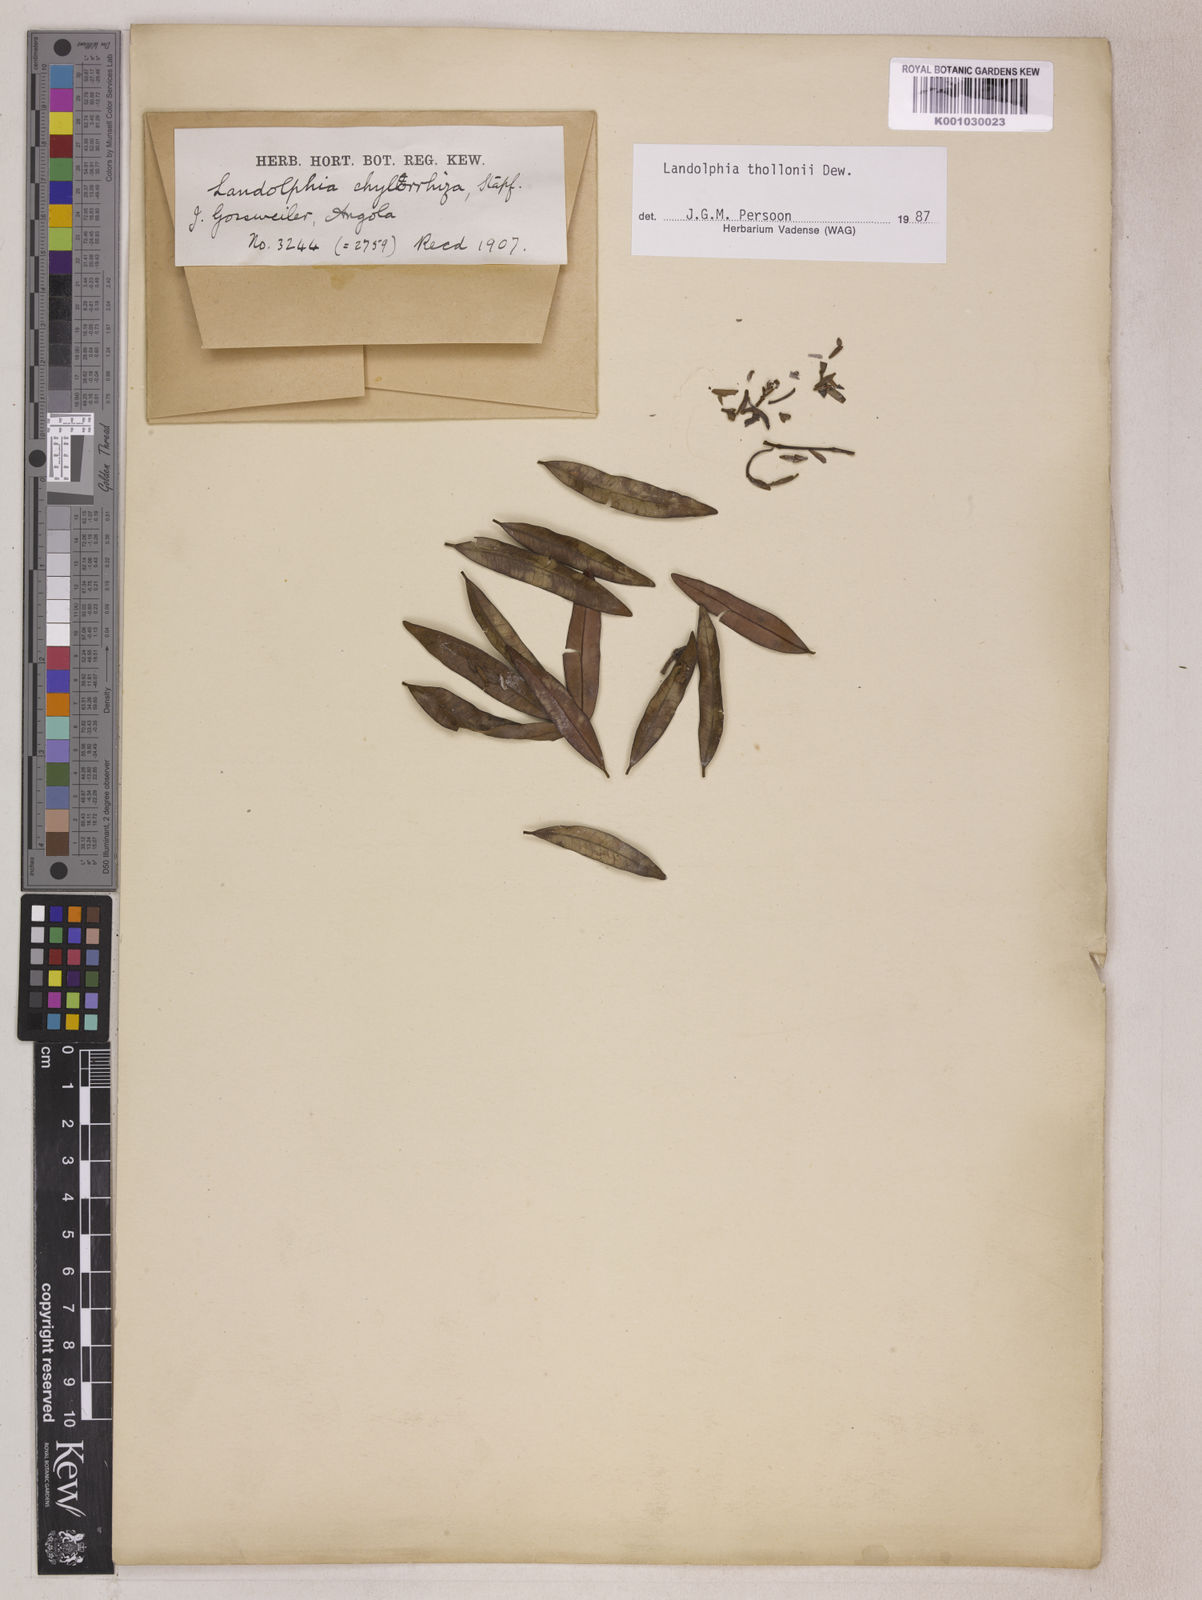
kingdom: Plantae
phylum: Tracheophyta
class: Magnoliopsida
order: Gentianales
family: Apocynaceae
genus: Landolphia
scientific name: Landolphia
